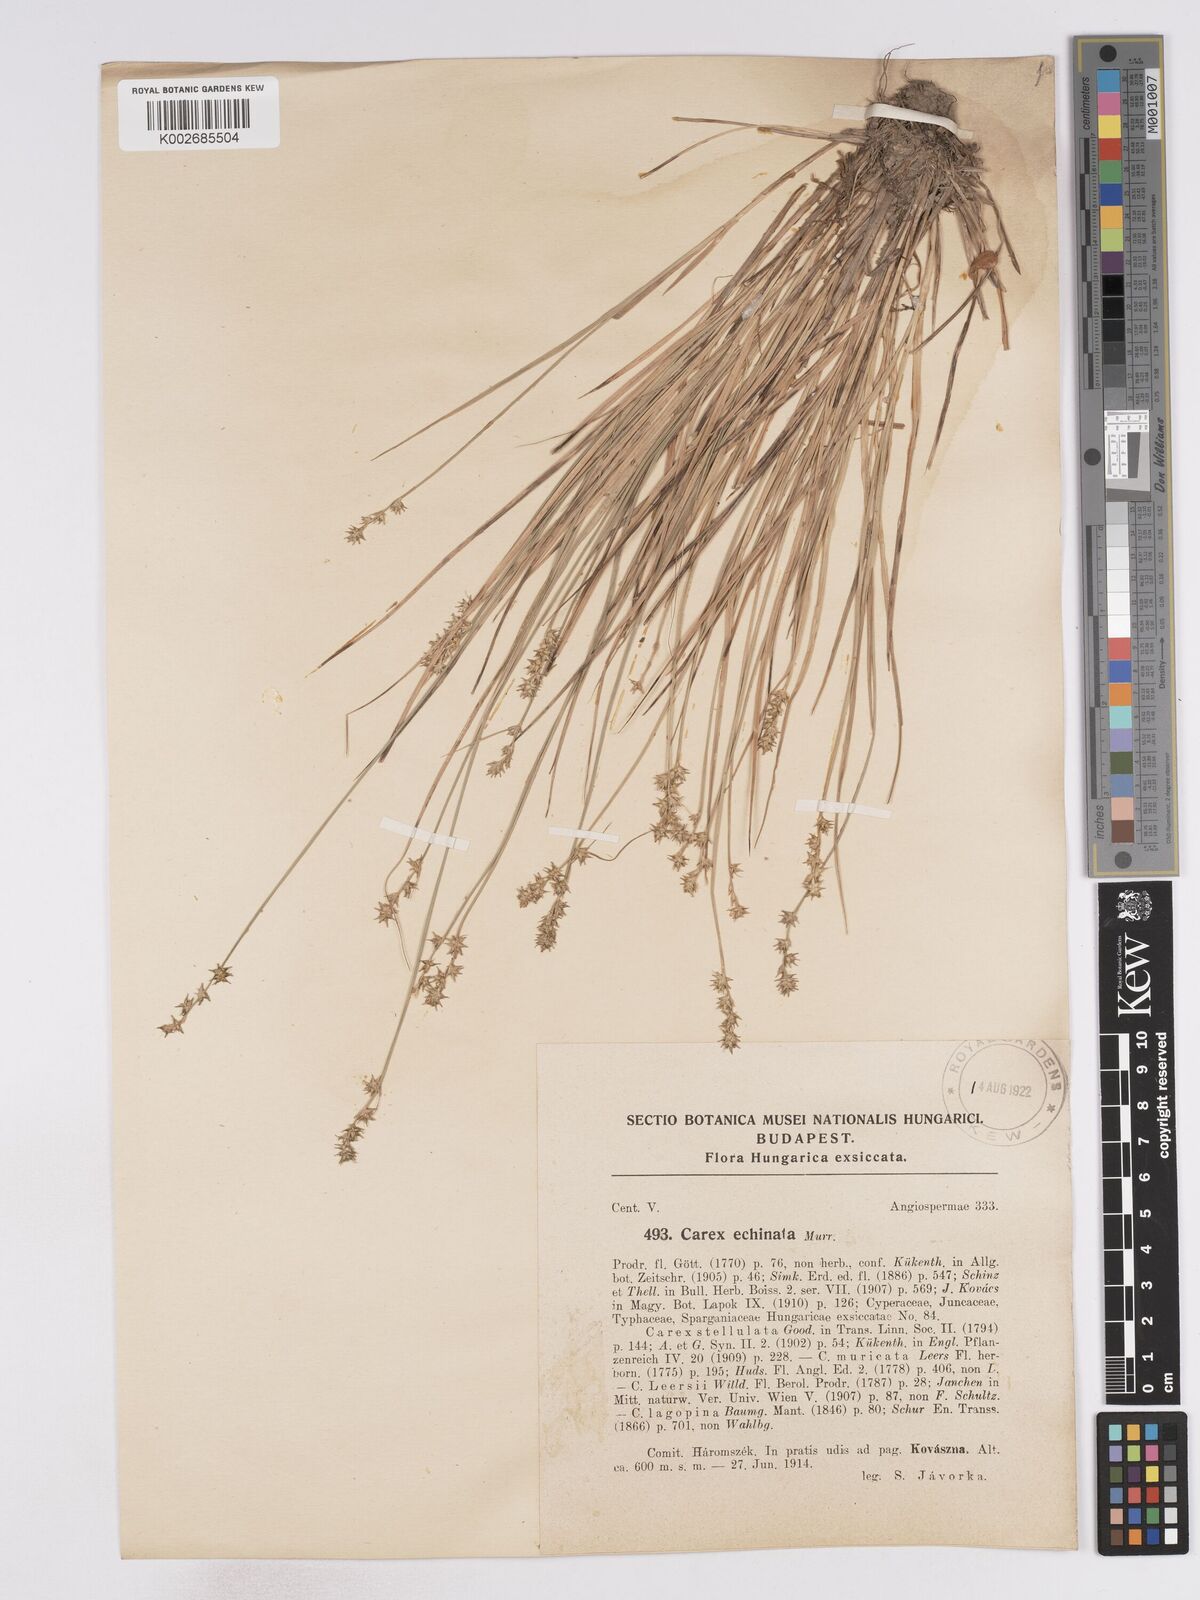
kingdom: Plantae
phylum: Tracheophyta
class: Liliopsida
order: Poales
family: Cyperaceae
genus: Carex
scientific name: Carex echinata
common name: Star sedge
